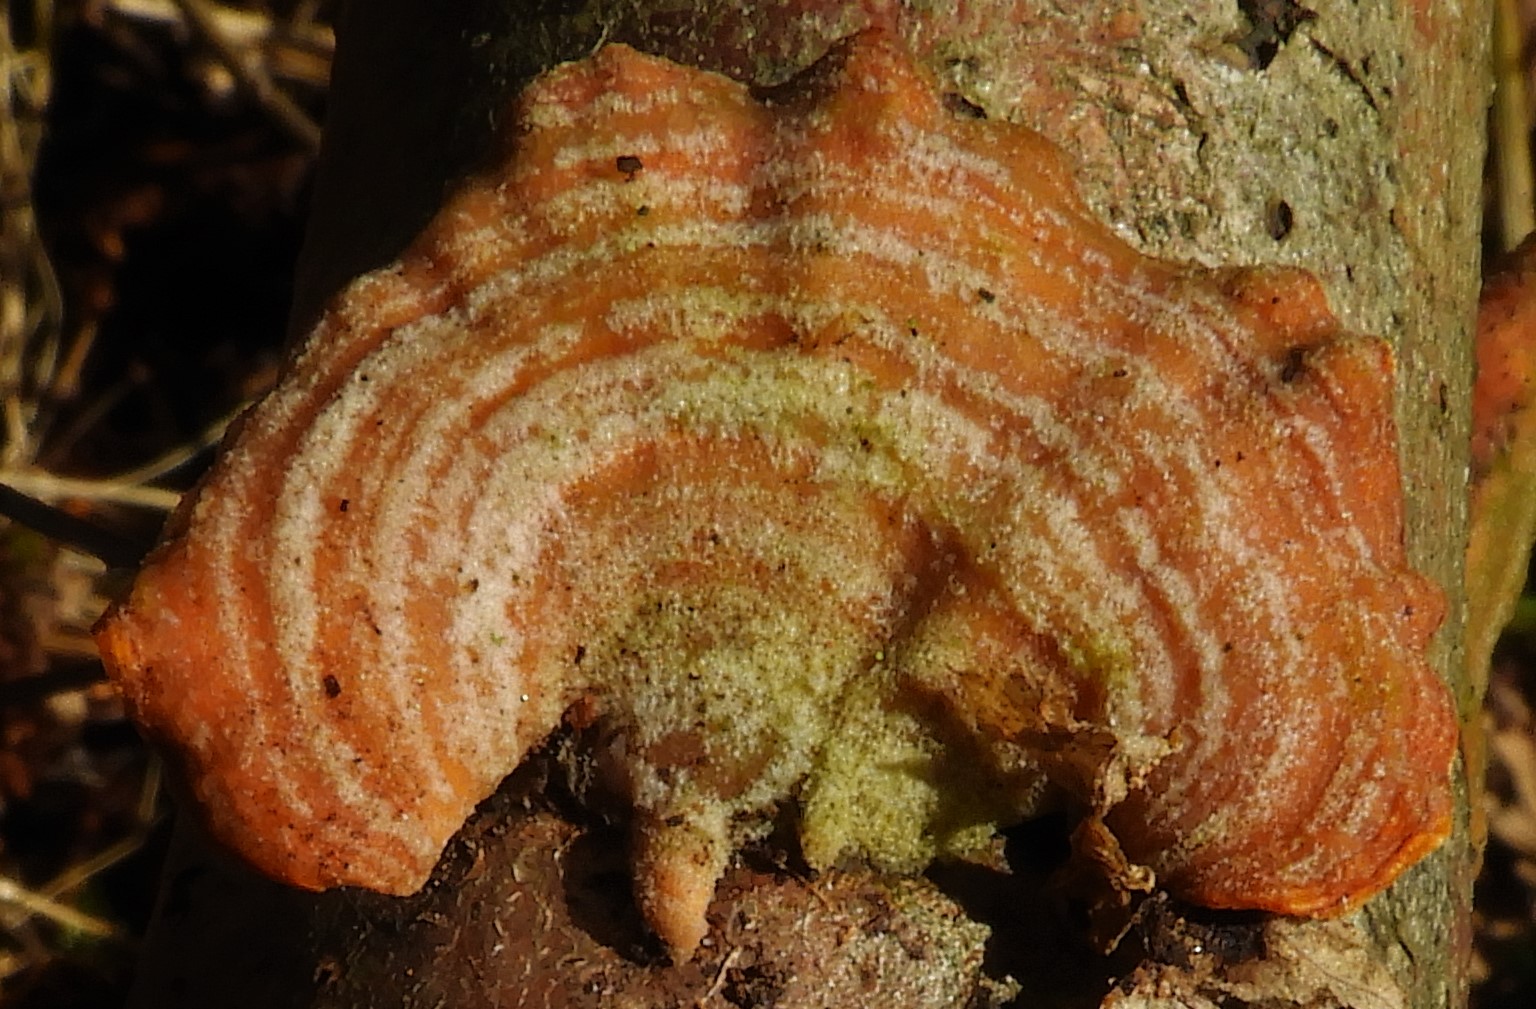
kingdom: Fungi
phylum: Basidiomycota
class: Agaricomycetes
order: Russulales
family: Stereaceae
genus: Stereum
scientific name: Stereum subtomentosum
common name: smuk lædersvamp
